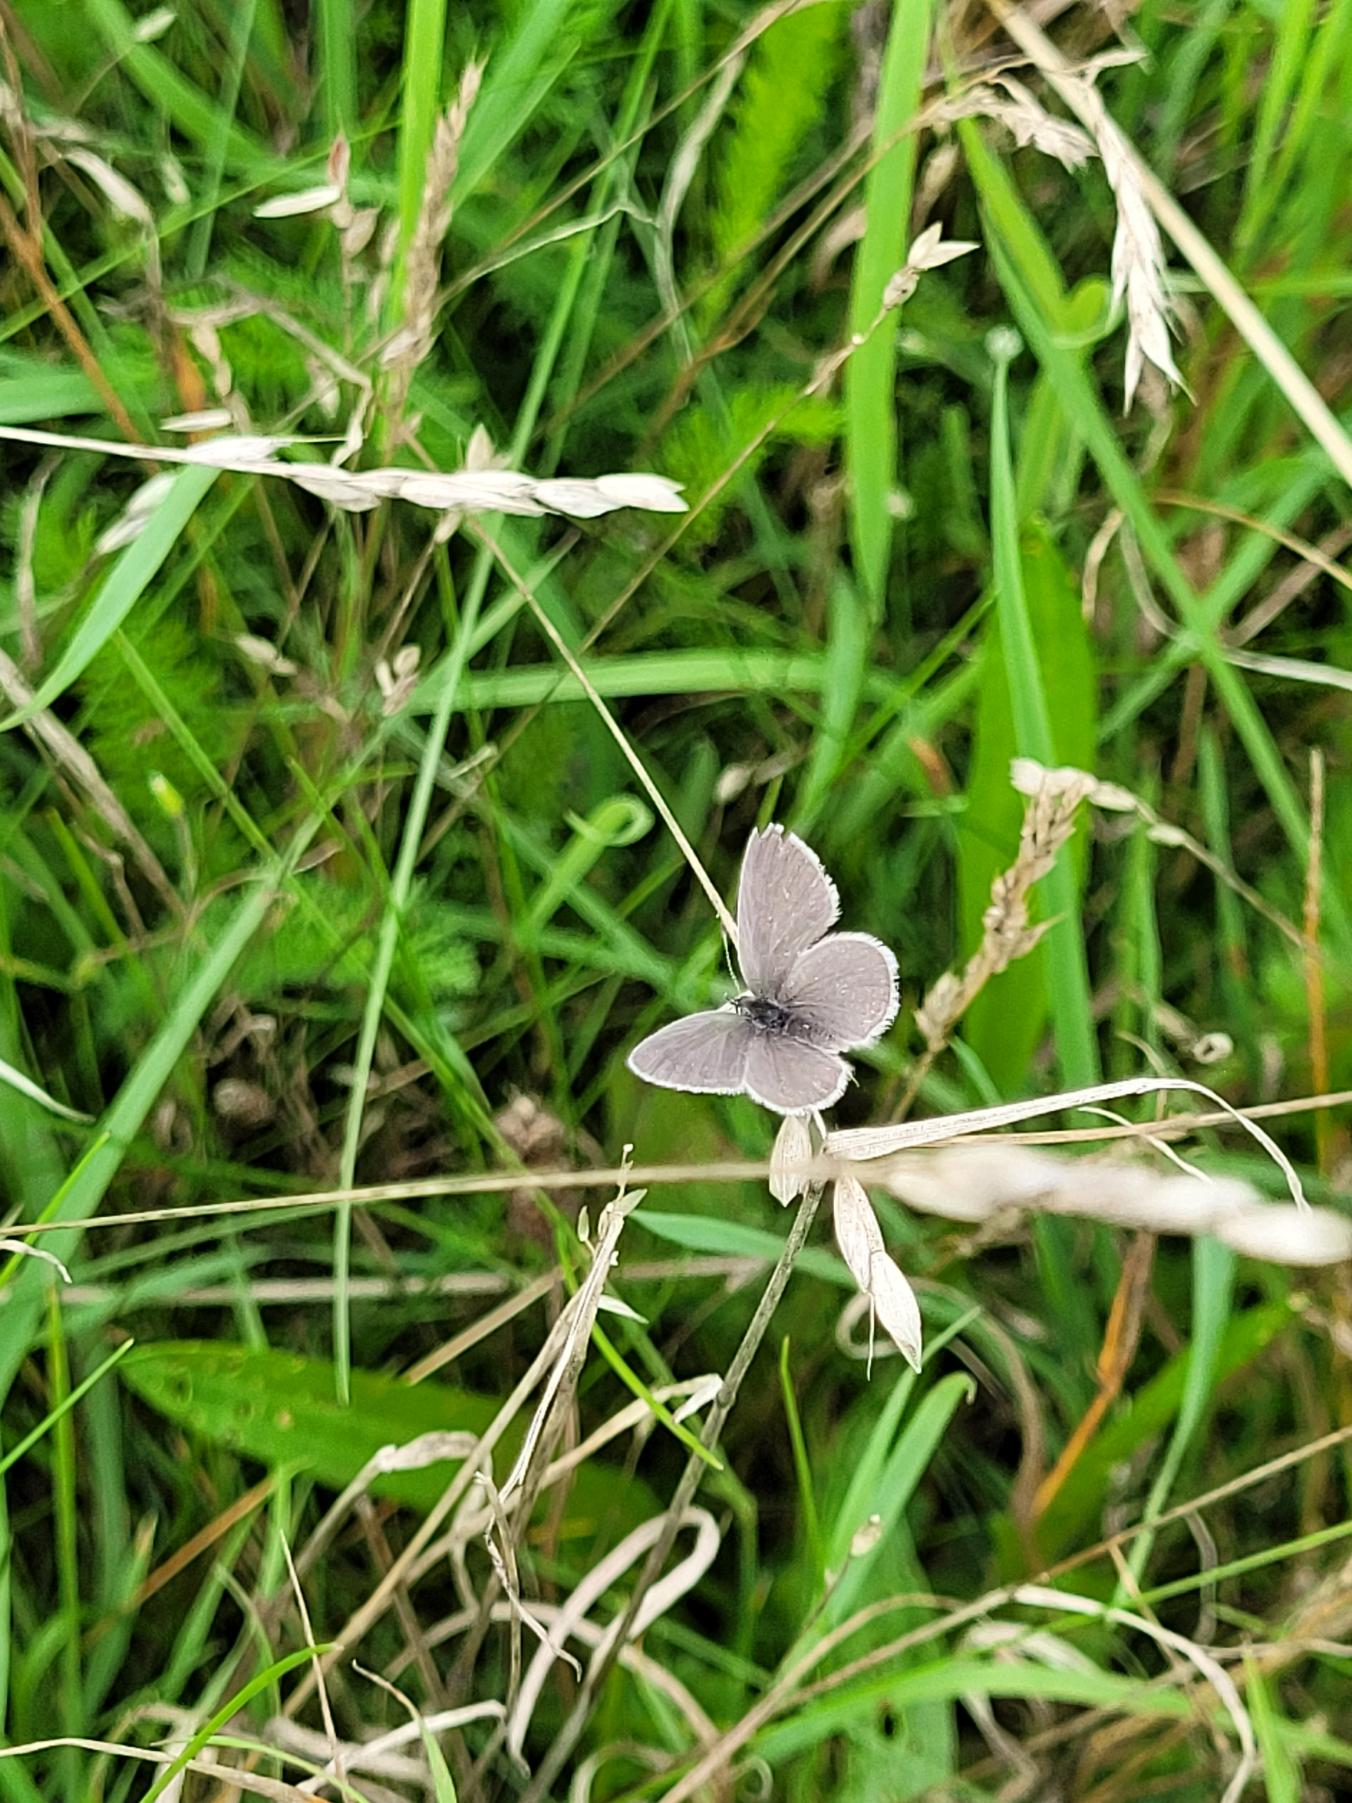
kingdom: Animalia
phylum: Arthropoda
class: Insecta
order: Lepidoptera
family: Lycaenidae
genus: Cupido
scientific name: Cupido minimus
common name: Dværgblåfugl
